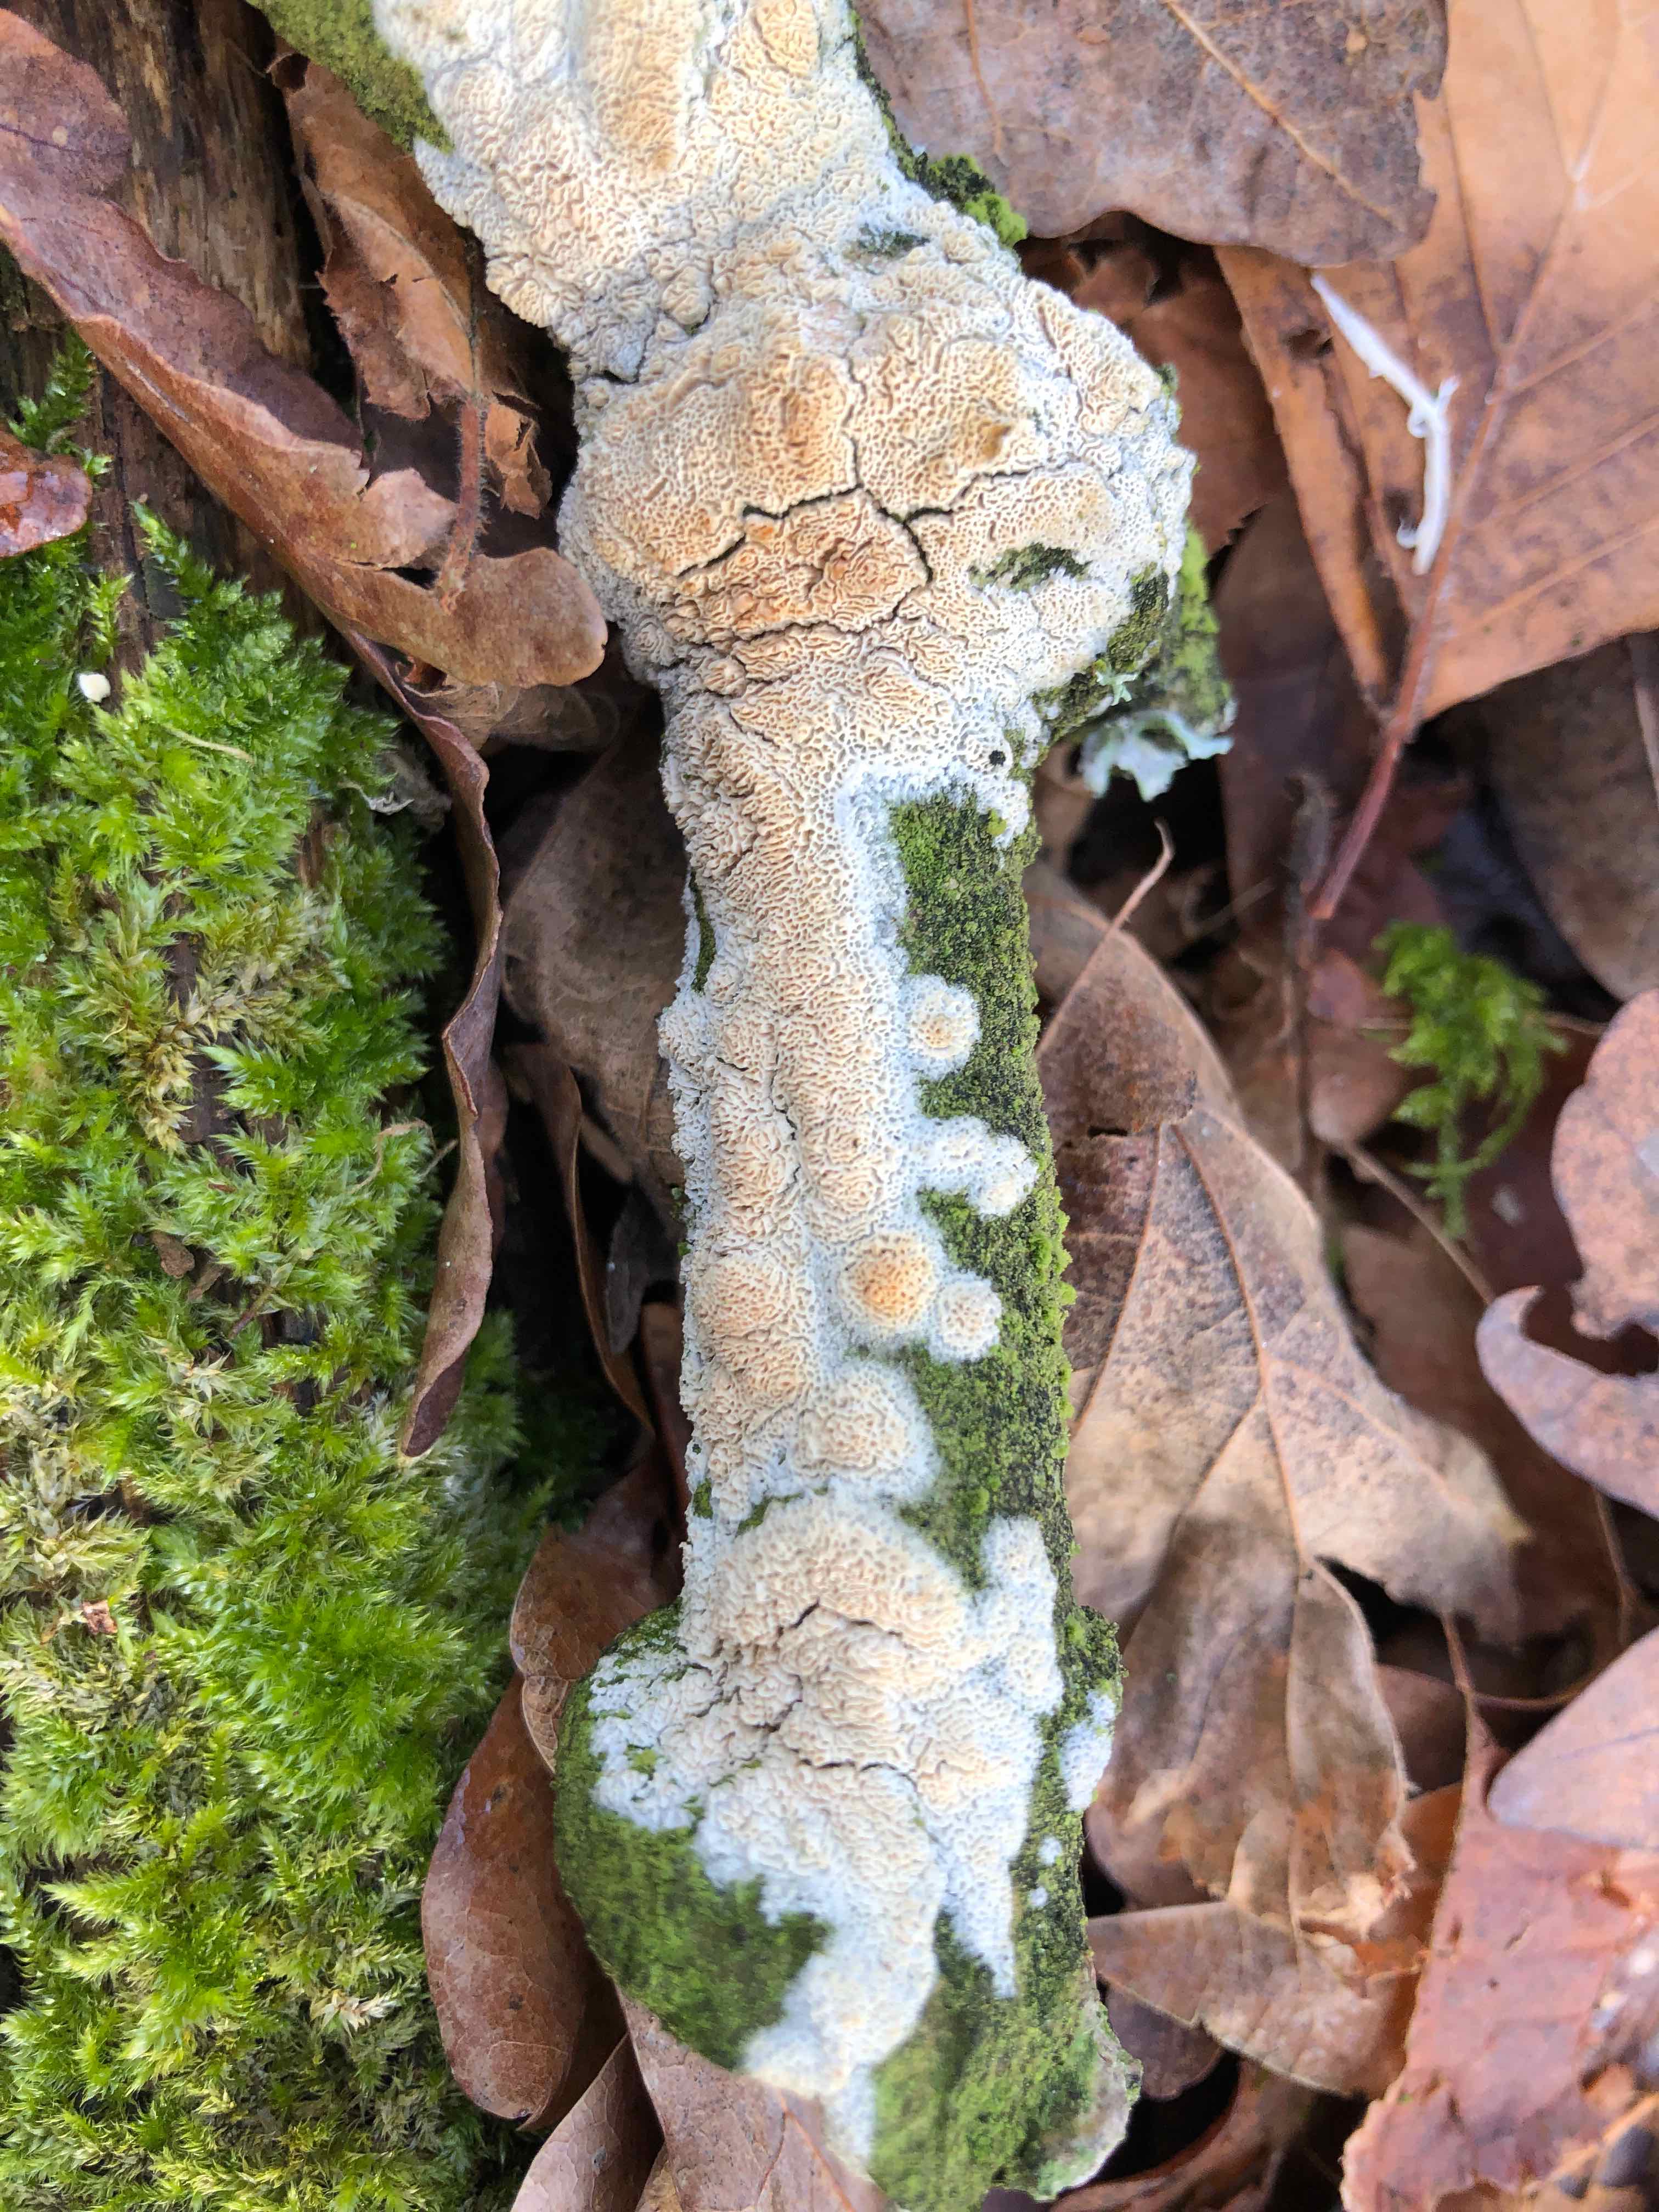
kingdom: Fungi
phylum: Basidiomycota
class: Agaricomycetes
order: Hymenochaetales
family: Schizoporaceae
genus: Xylodon
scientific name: Xylodon
